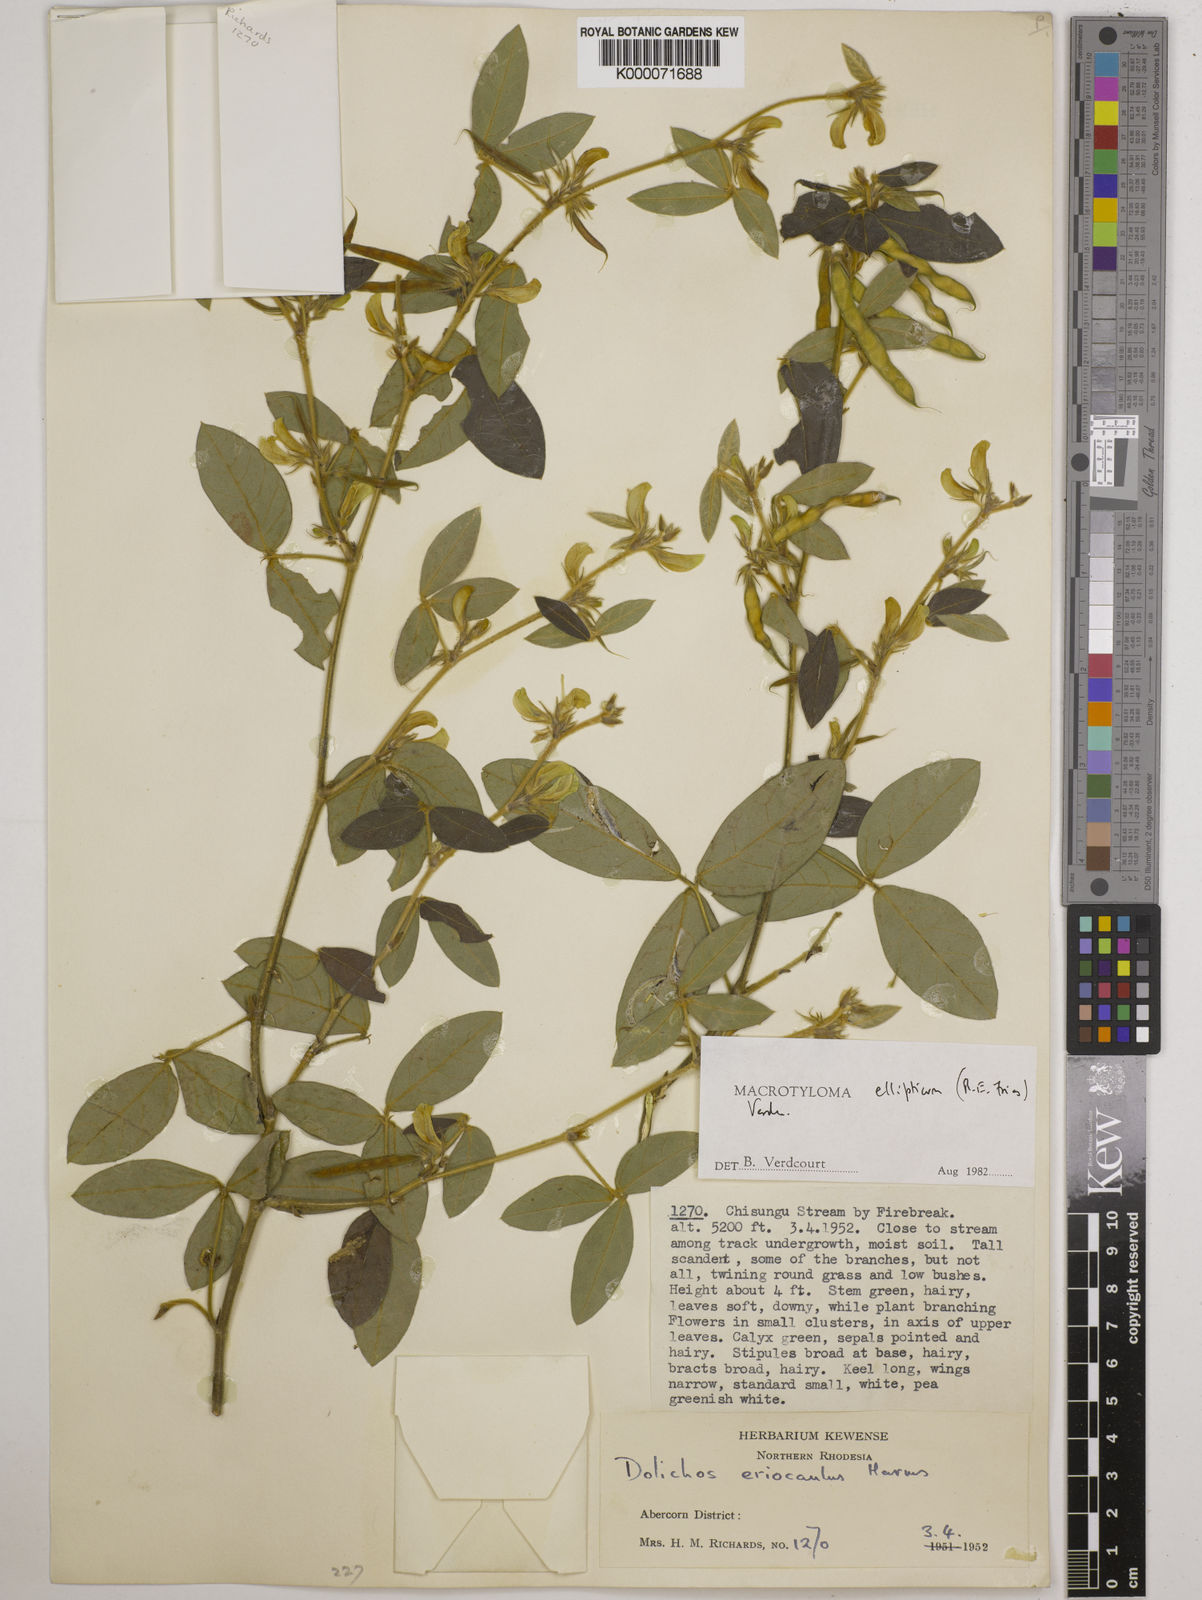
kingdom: Plantae
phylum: Tracheophyta
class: Magnoliopsida
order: Fabales
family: Fabaceae
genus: Macrotyloma
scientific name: Macrotyloma ellipticum
